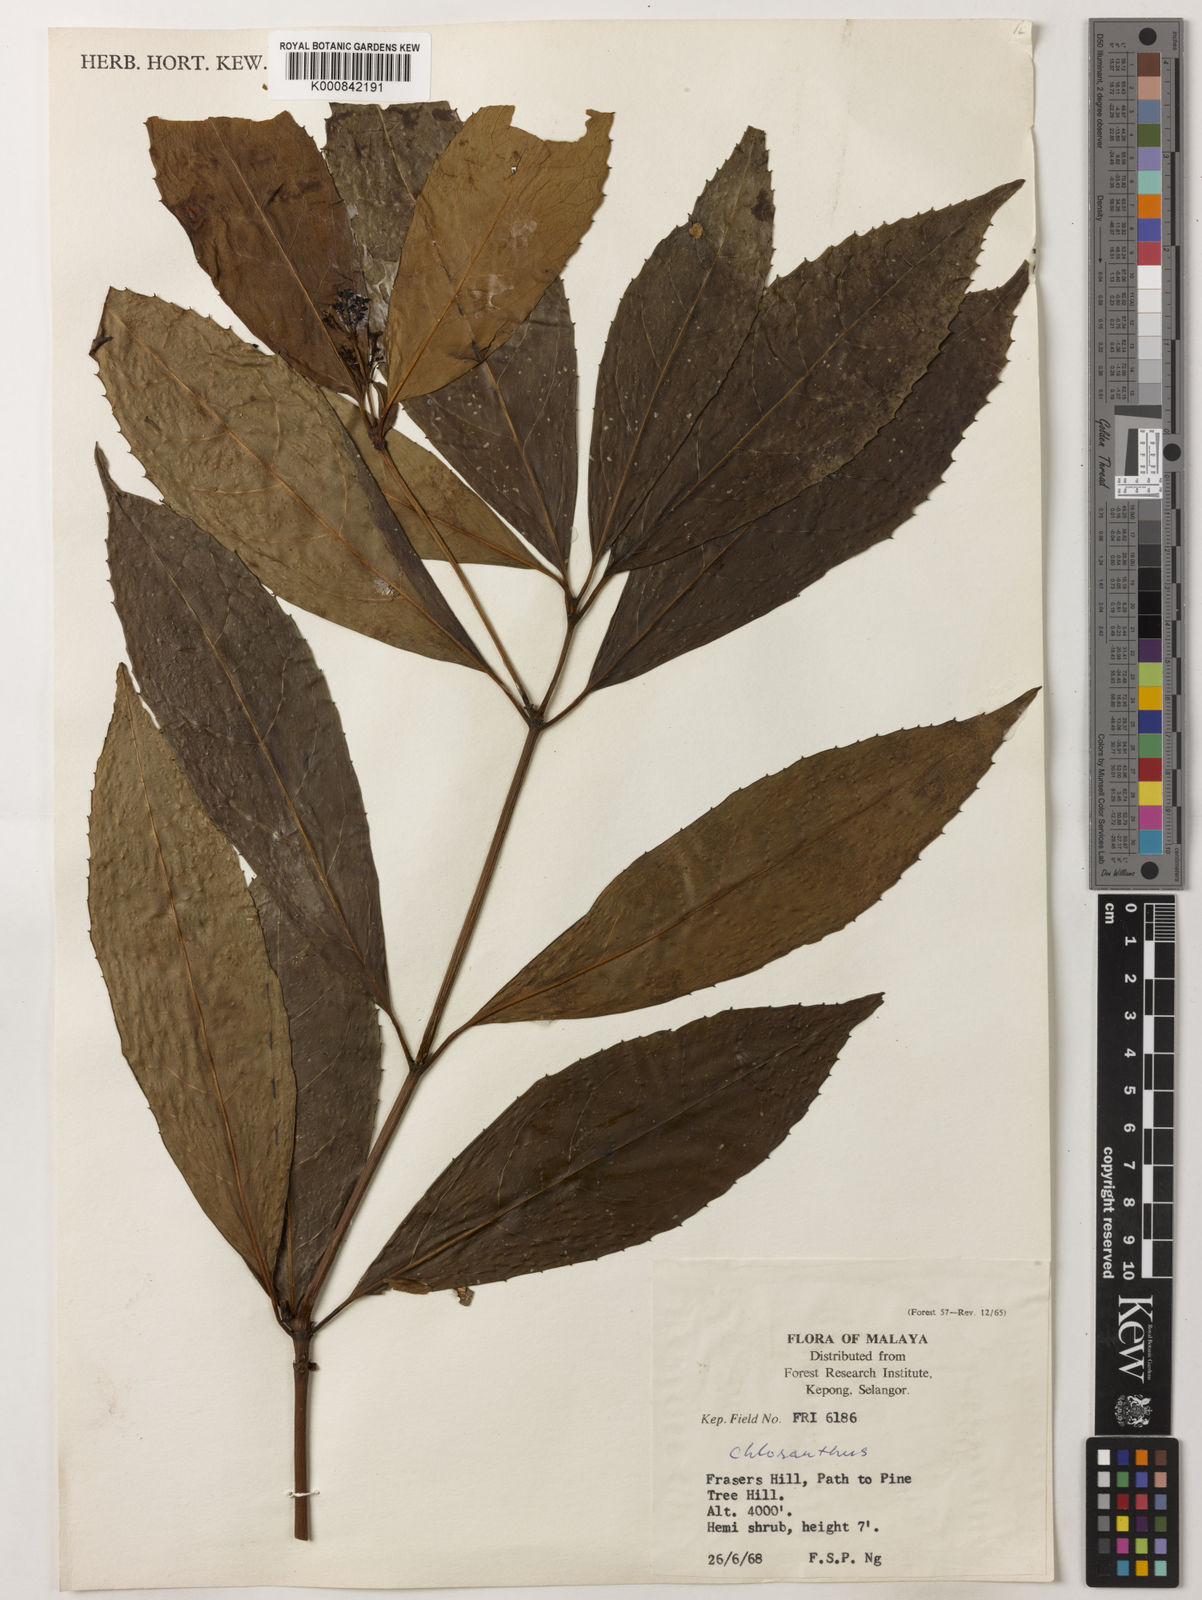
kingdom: Plantae
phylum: Tracheophyta
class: Magnoliopsida
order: Chloranthales
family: Chloranthaceae
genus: Sarcandra
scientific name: Sarcandra glabra
